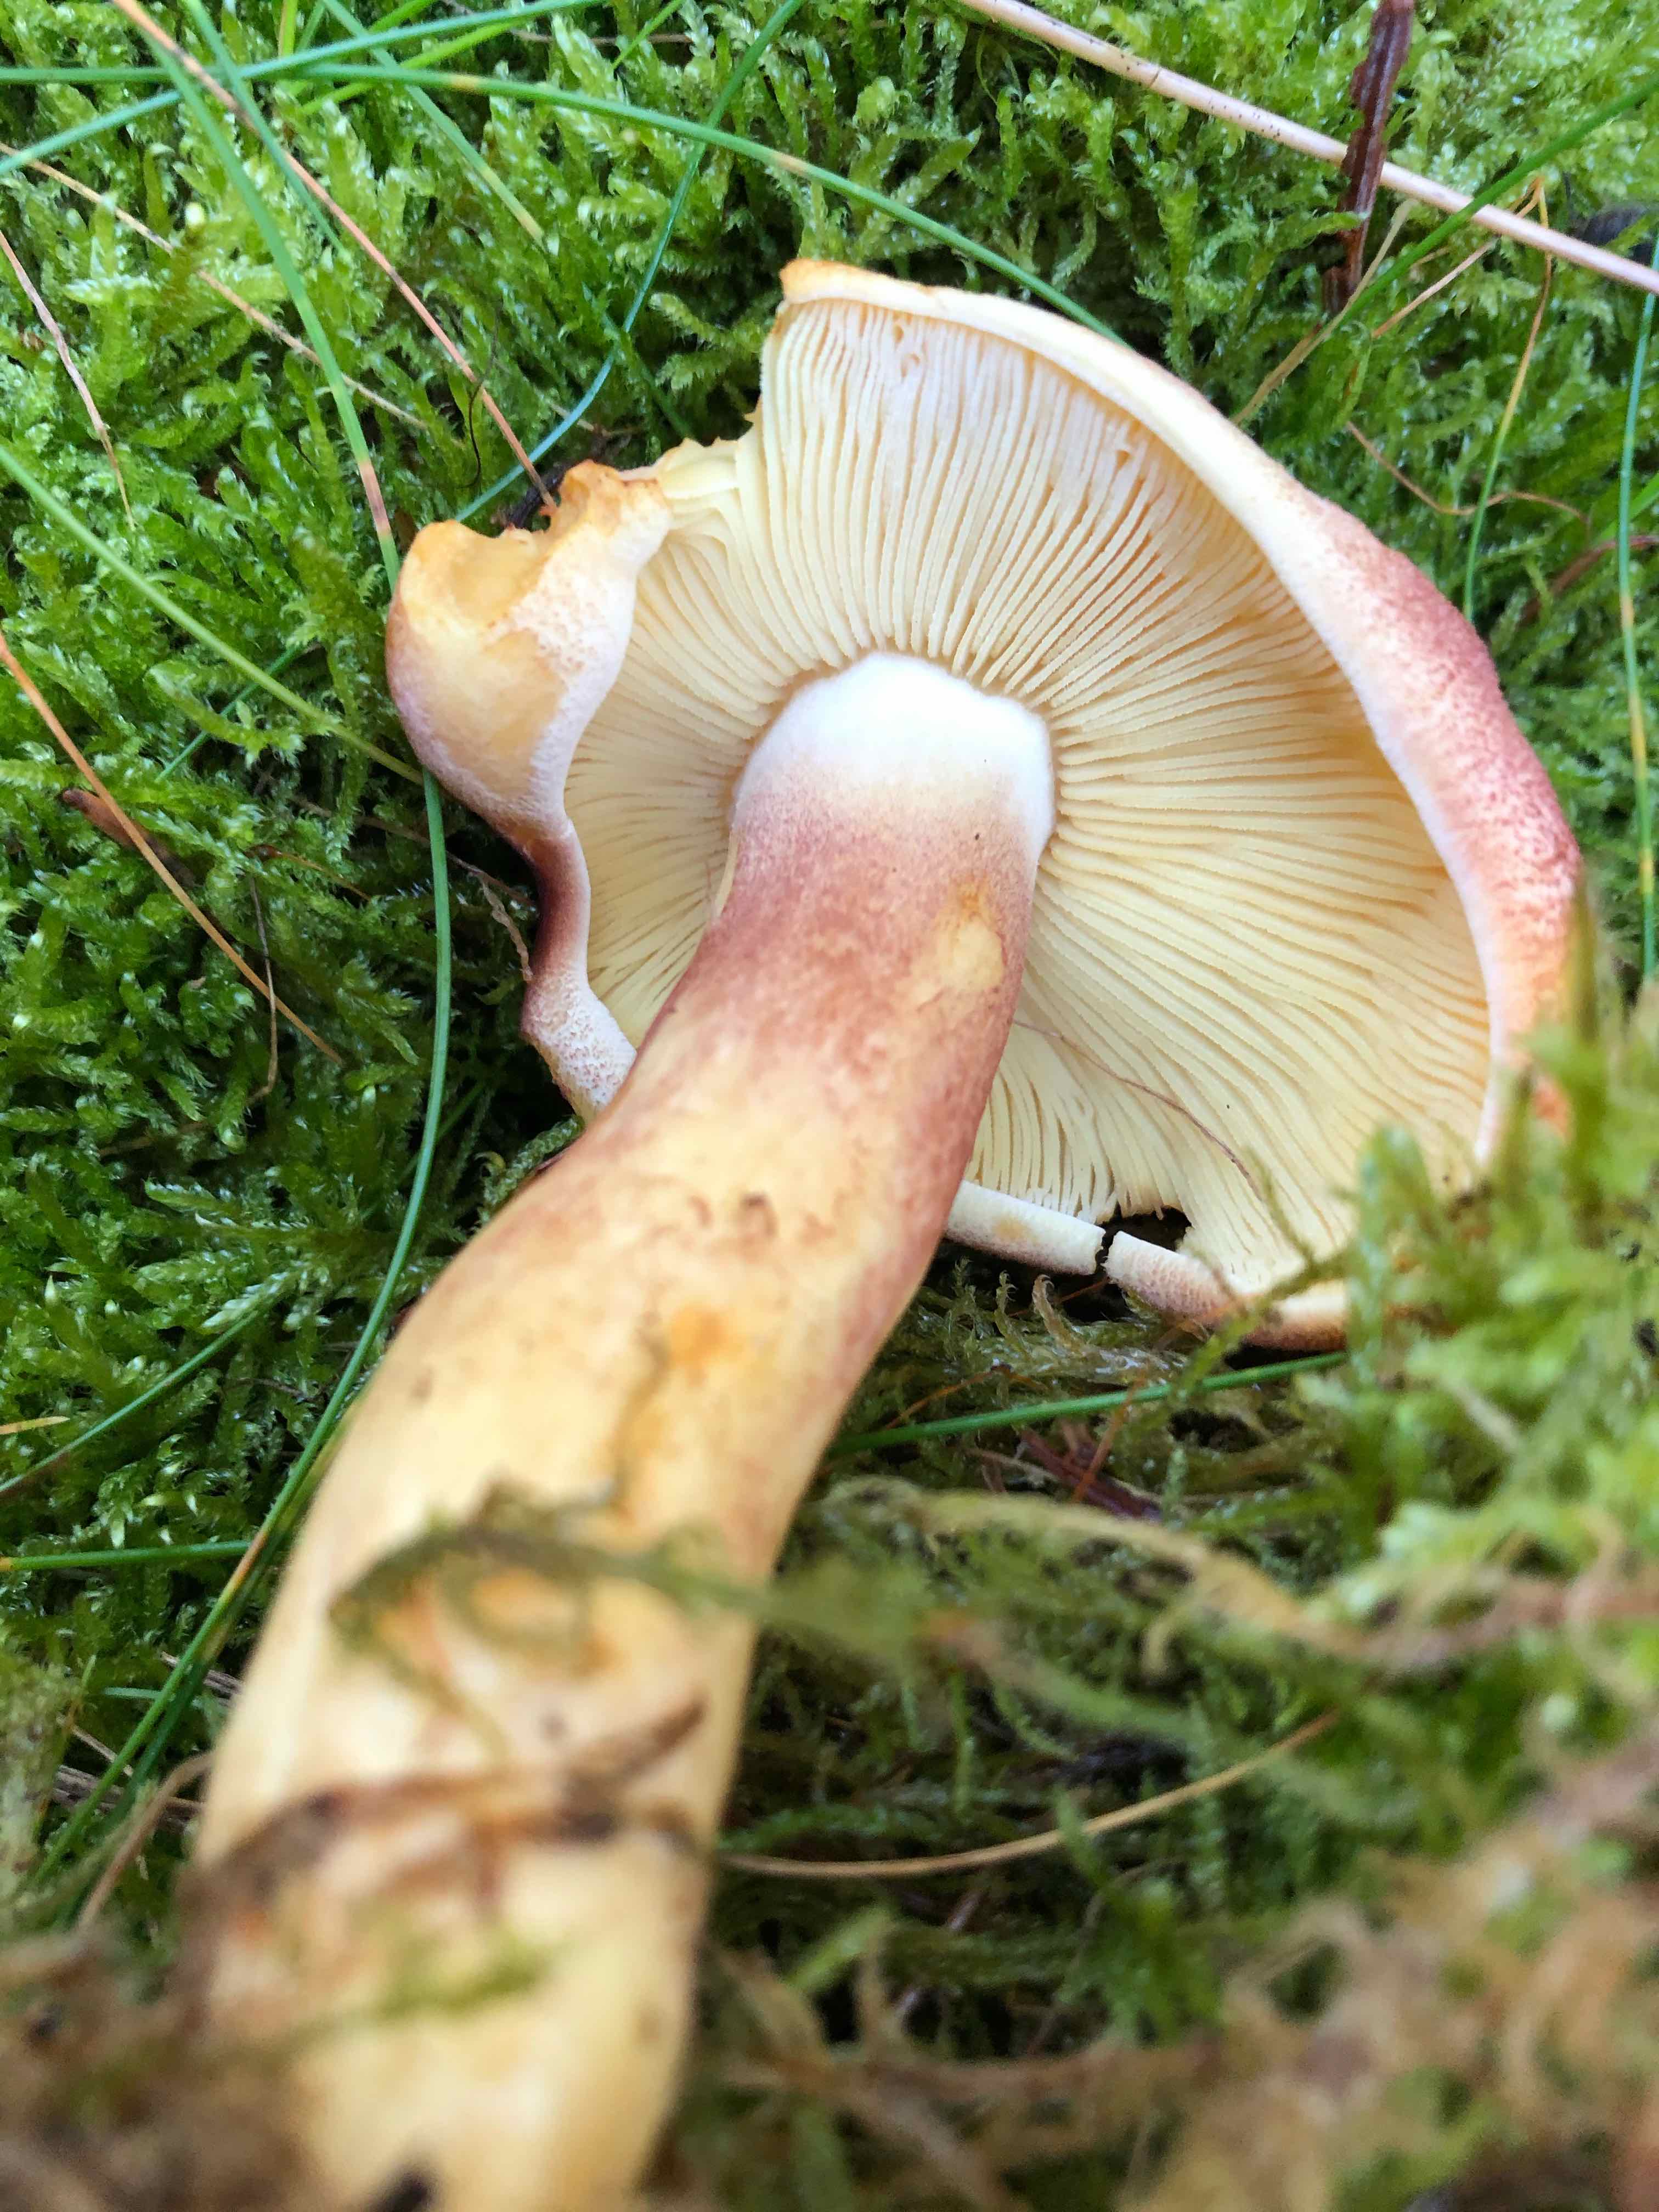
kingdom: Fungi
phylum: Basidiomycota
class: Agaricomycetes
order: Agaricales
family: Tricholomataceae
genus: Tricholomopsis
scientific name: Tricholomopsis rutilans
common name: purpur-væbnerhat
